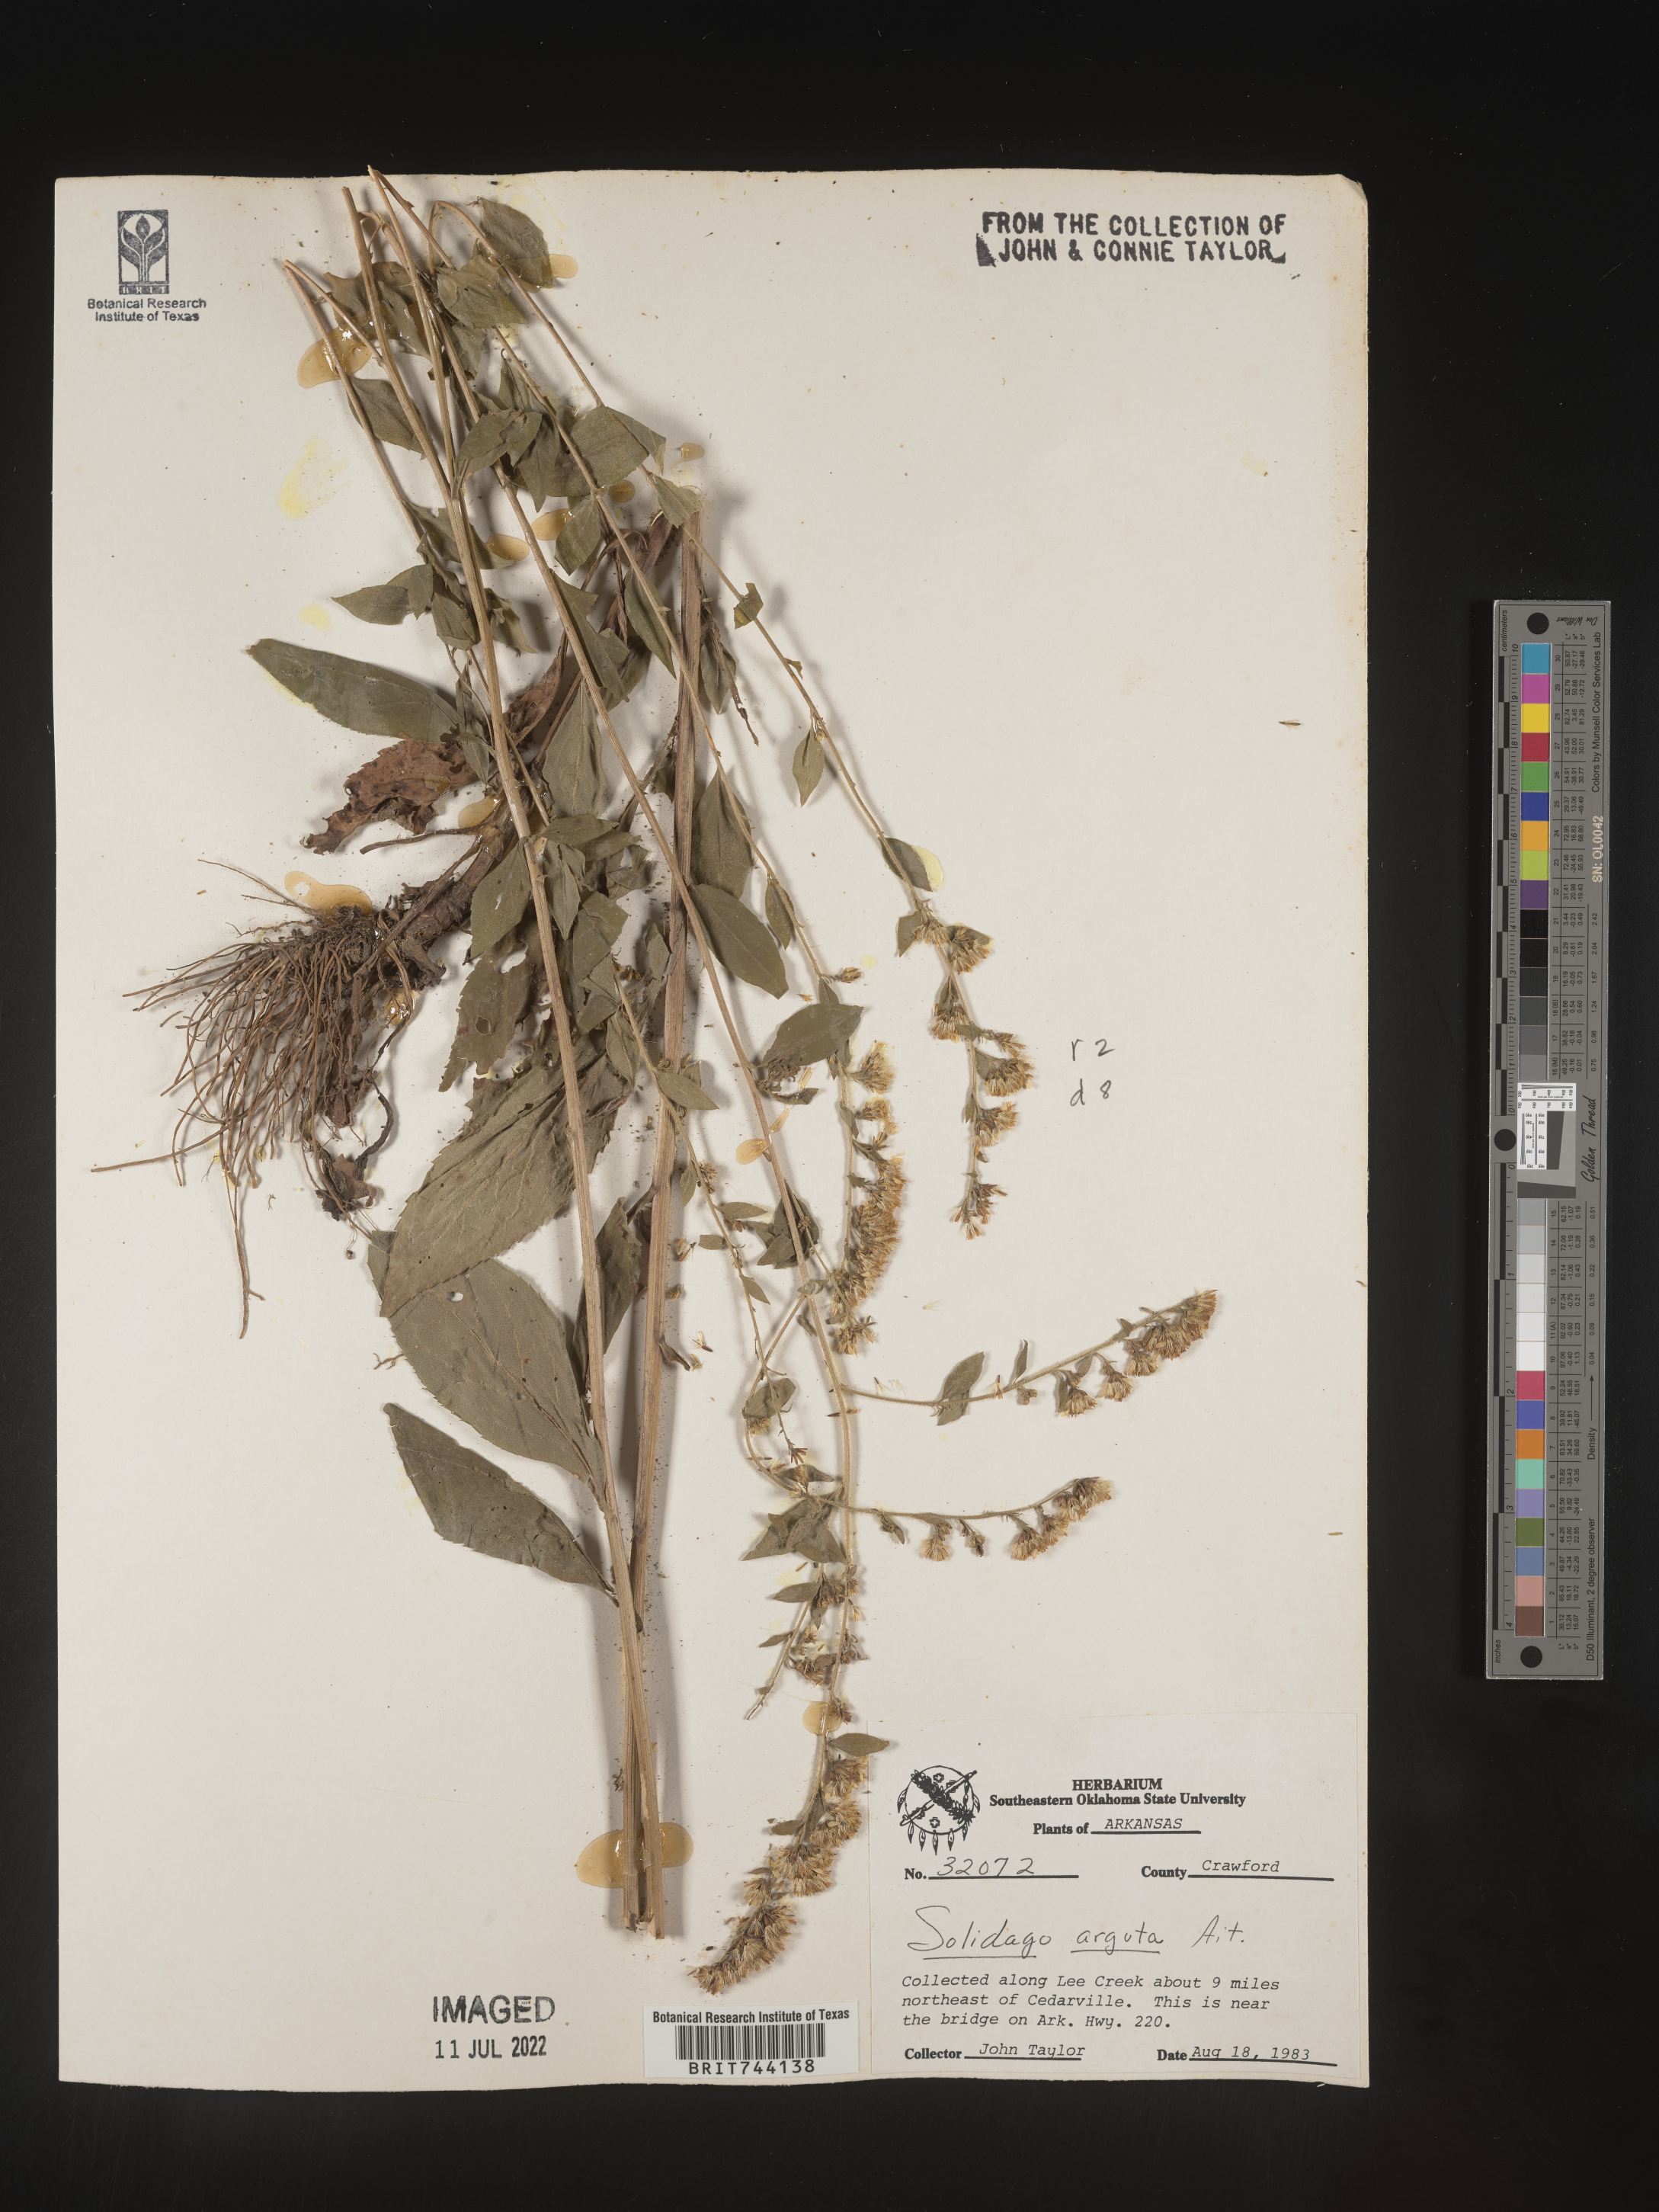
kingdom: Plantae
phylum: Tracheophyta
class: Magnoliopsida
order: Asterales
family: Asteraceae
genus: Solidago
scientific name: Solidago arguta
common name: Atlantic goldenrod
